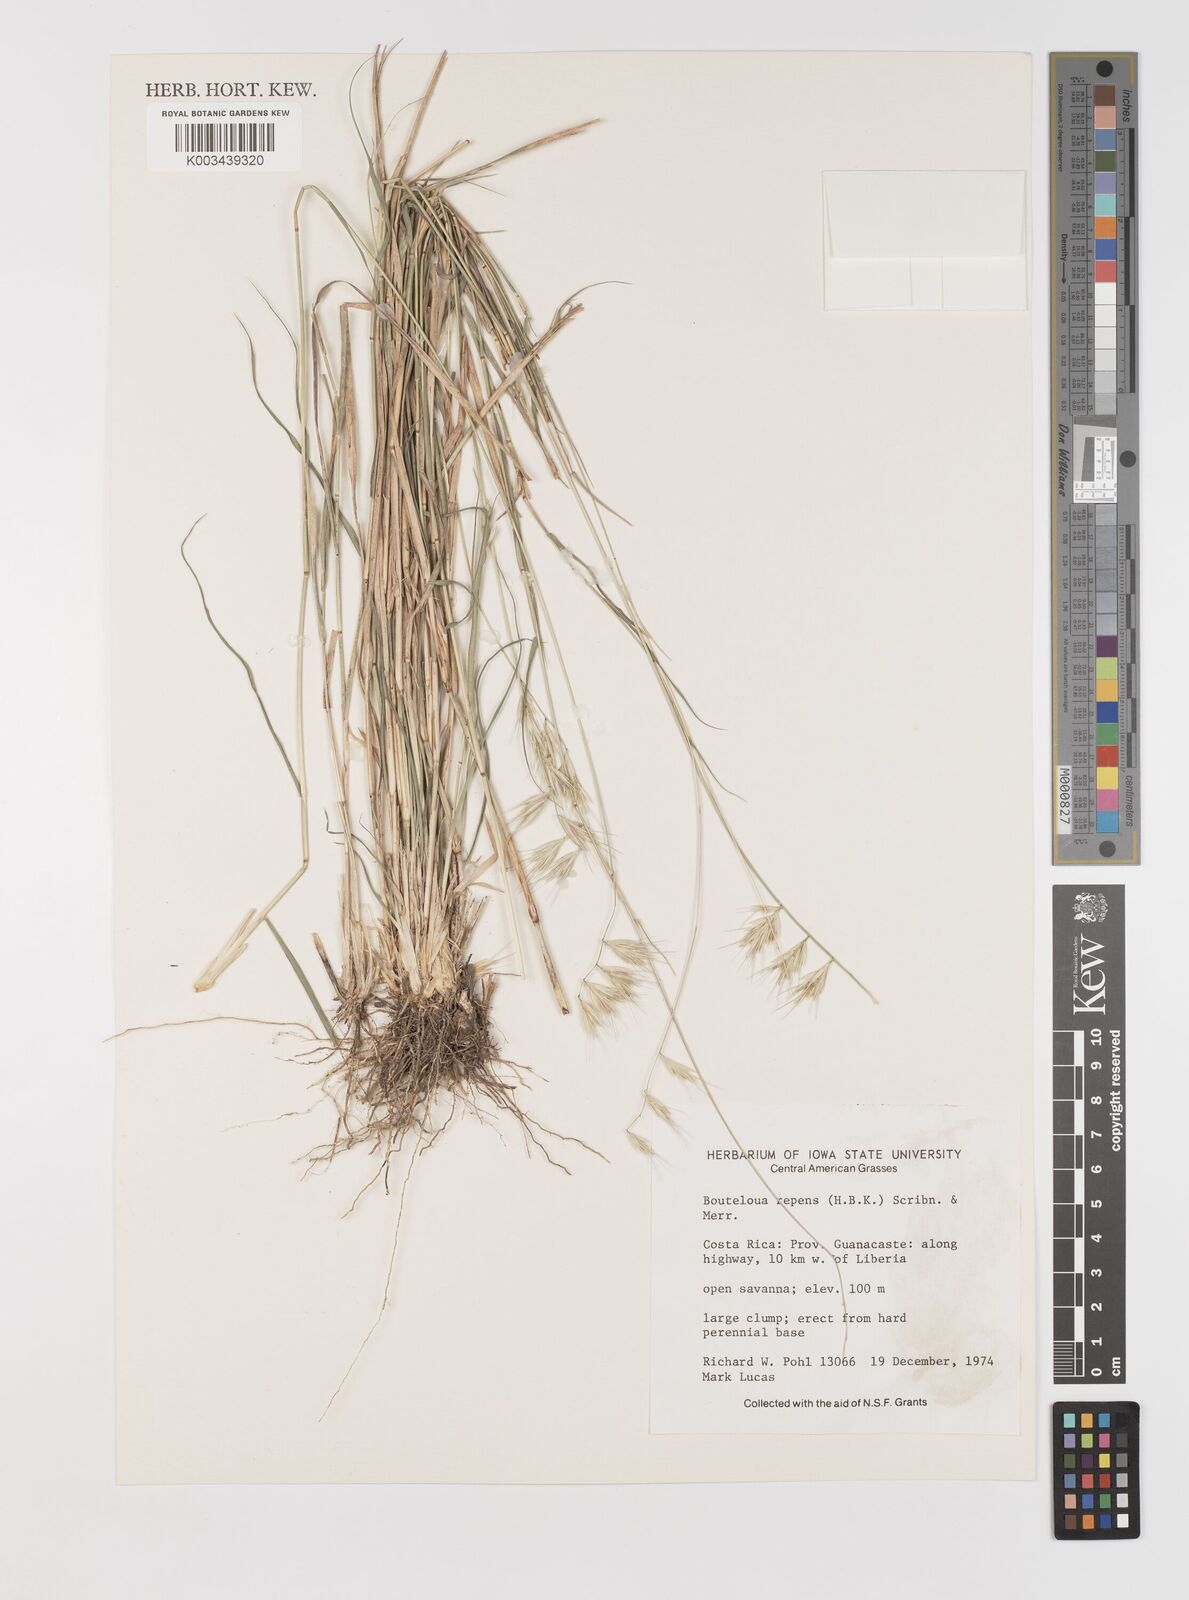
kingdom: Plantae
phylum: Tracheophyta
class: Liliopsida
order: Poales
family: Poaceae
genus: Bouteloua
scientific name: Bouteloua repens
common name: Slender grama
